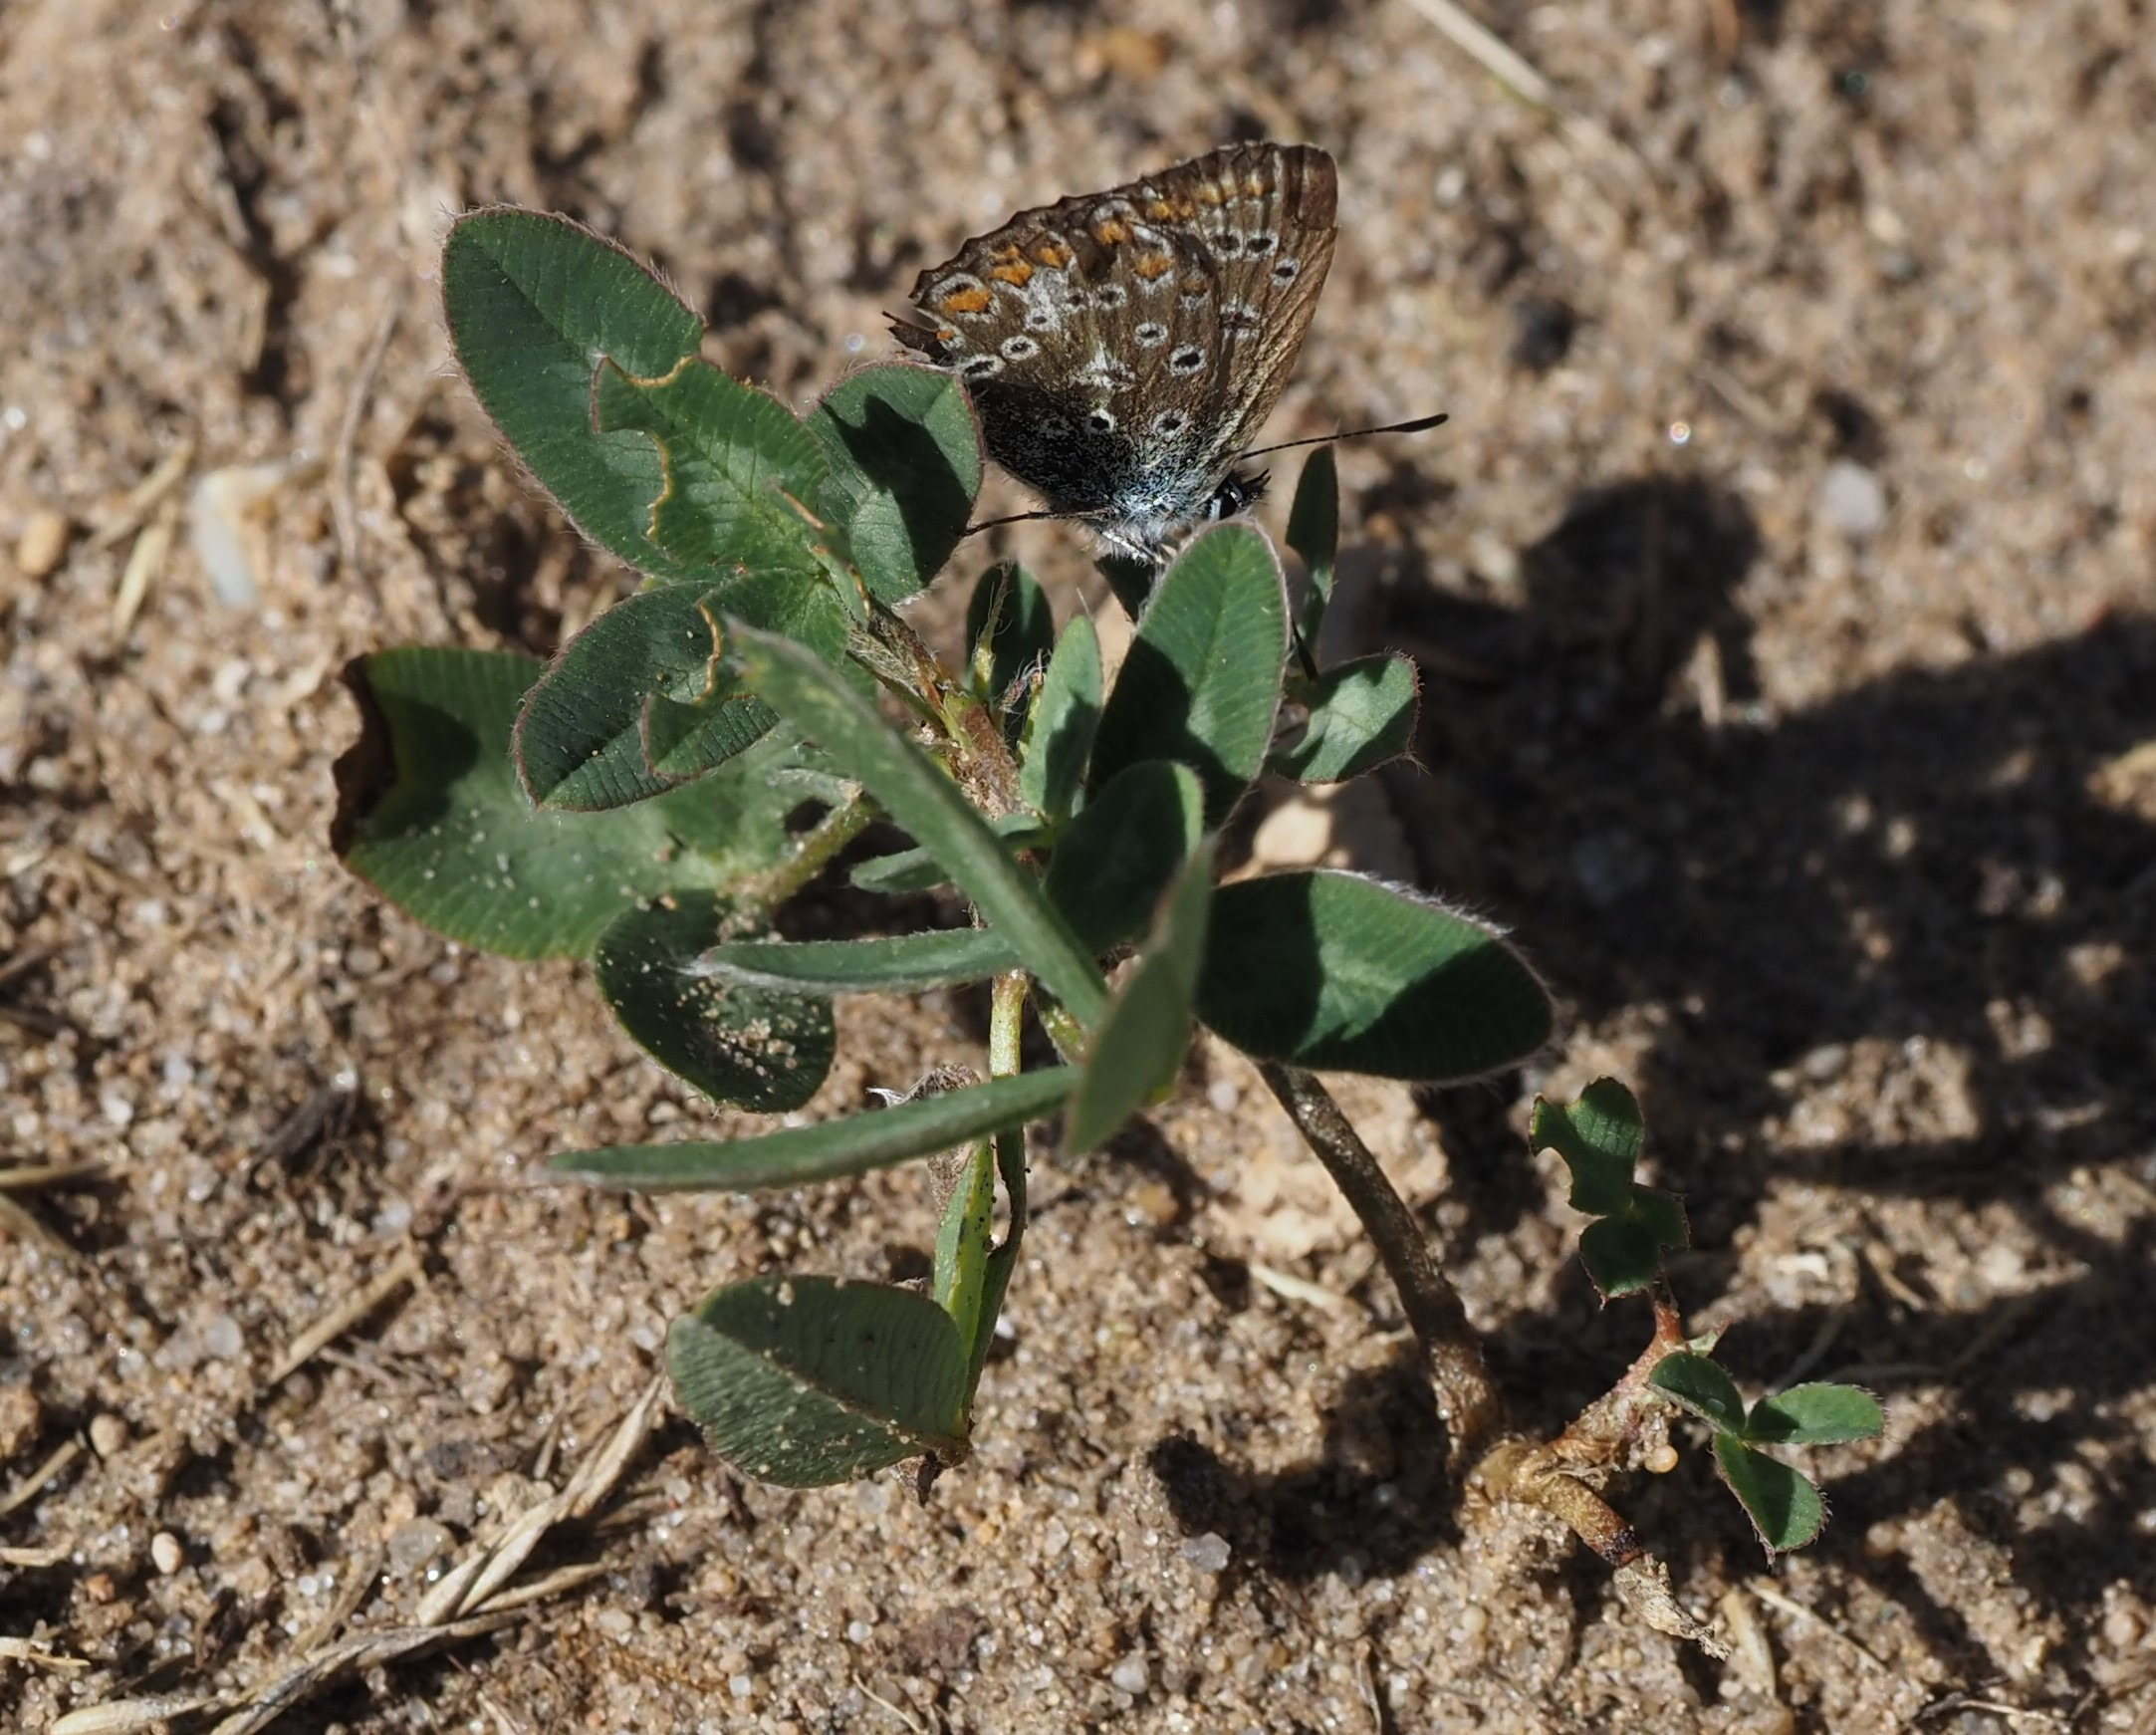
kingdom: Animalia
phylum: Arthropoda
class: Insecta
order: Lepidoptera
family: Lycaenidae
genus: Polyommatus
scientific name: Polyommatus icarus
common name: Almindelig blåfugl
